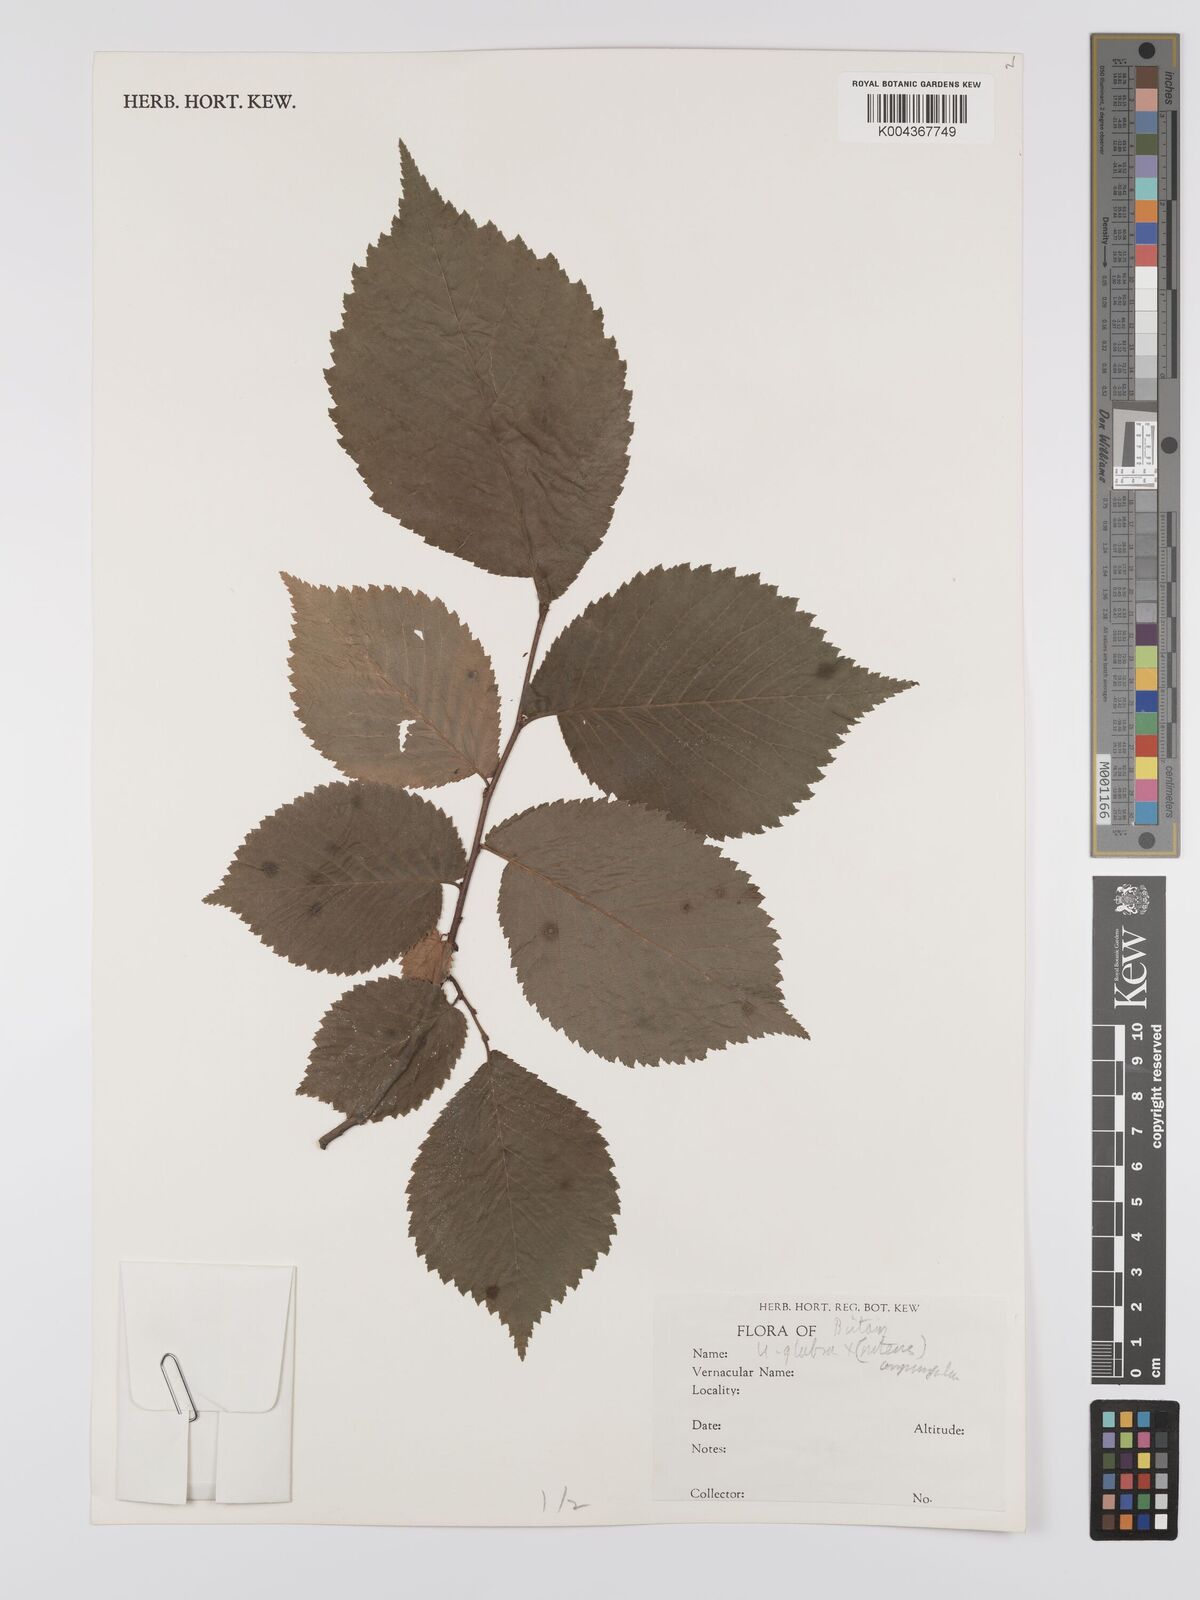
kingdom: Plantae
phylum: Tracheophyta
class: Magnoliopsida
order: Rosales
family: Ulmaceae
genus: Ulmus
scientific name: Ulmus minor
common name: Small-leaved elm
